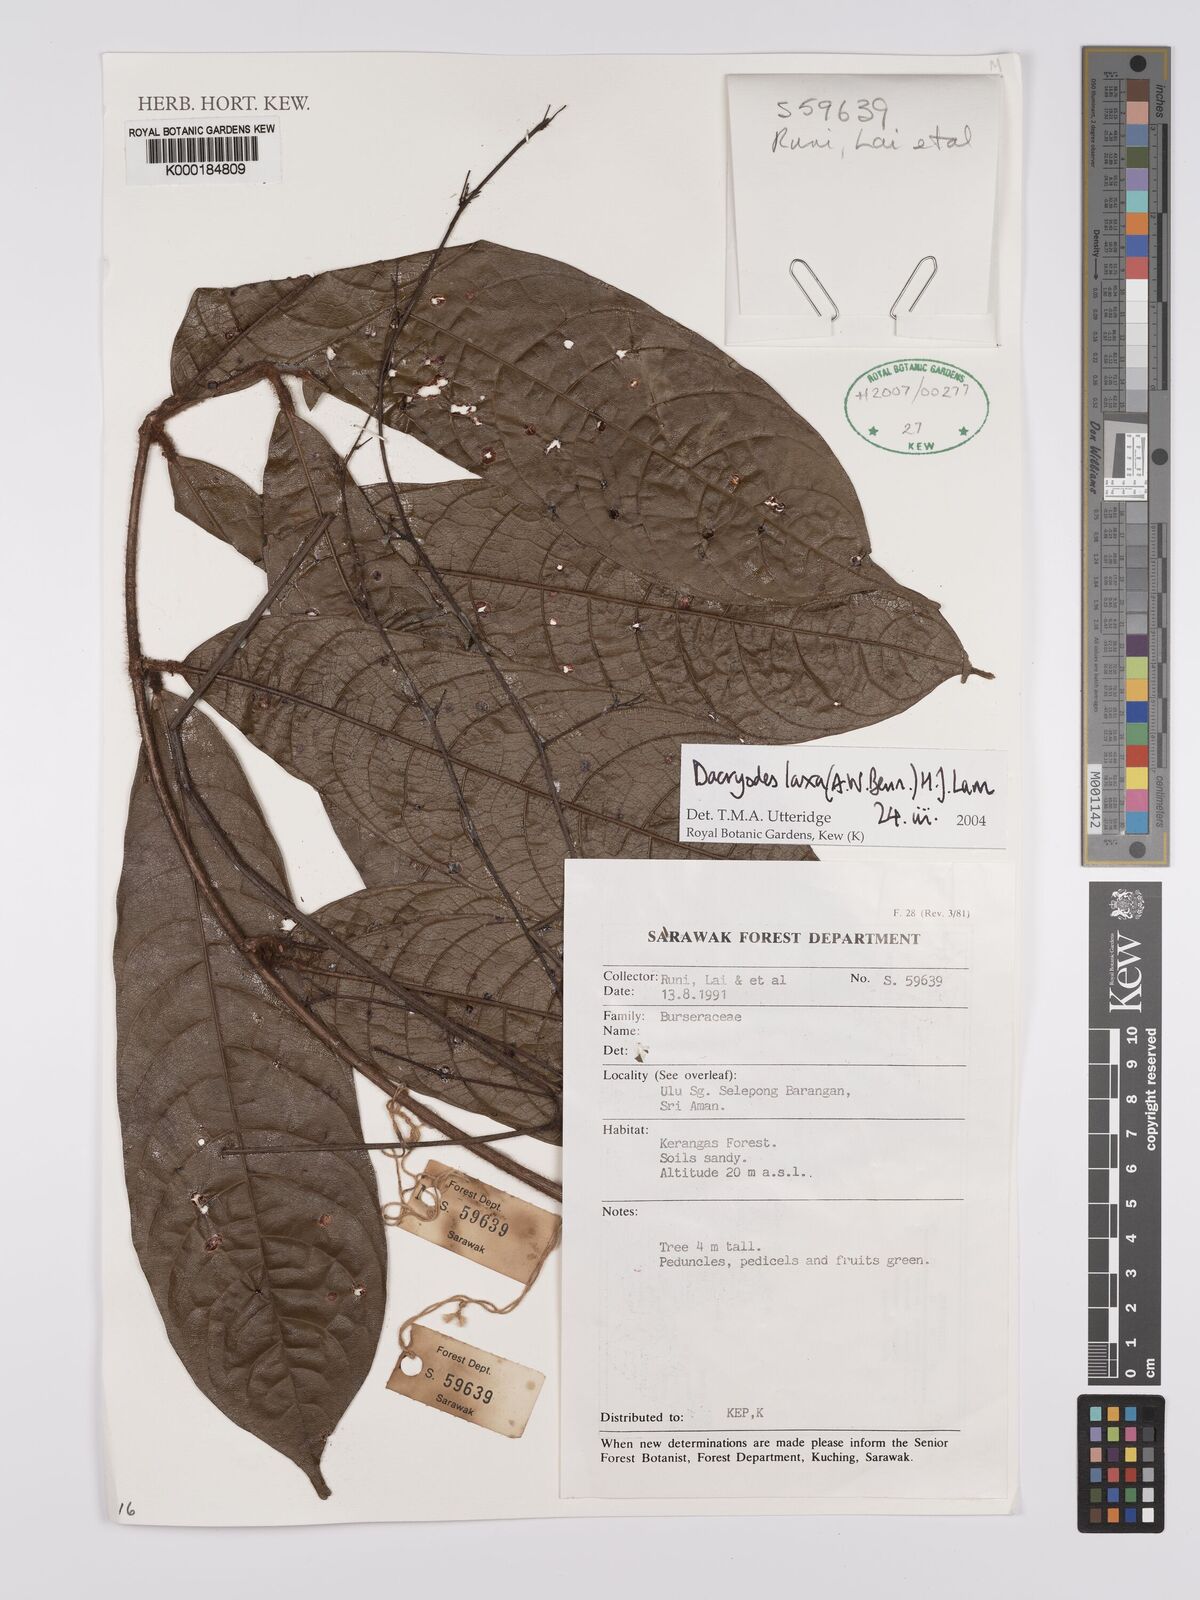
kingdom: Plantae
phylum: Tracheophyta
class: Magnoliopsida
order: Sapindales
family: Burseraceae
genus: Dacryodes
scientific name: Dacryodes laxa
